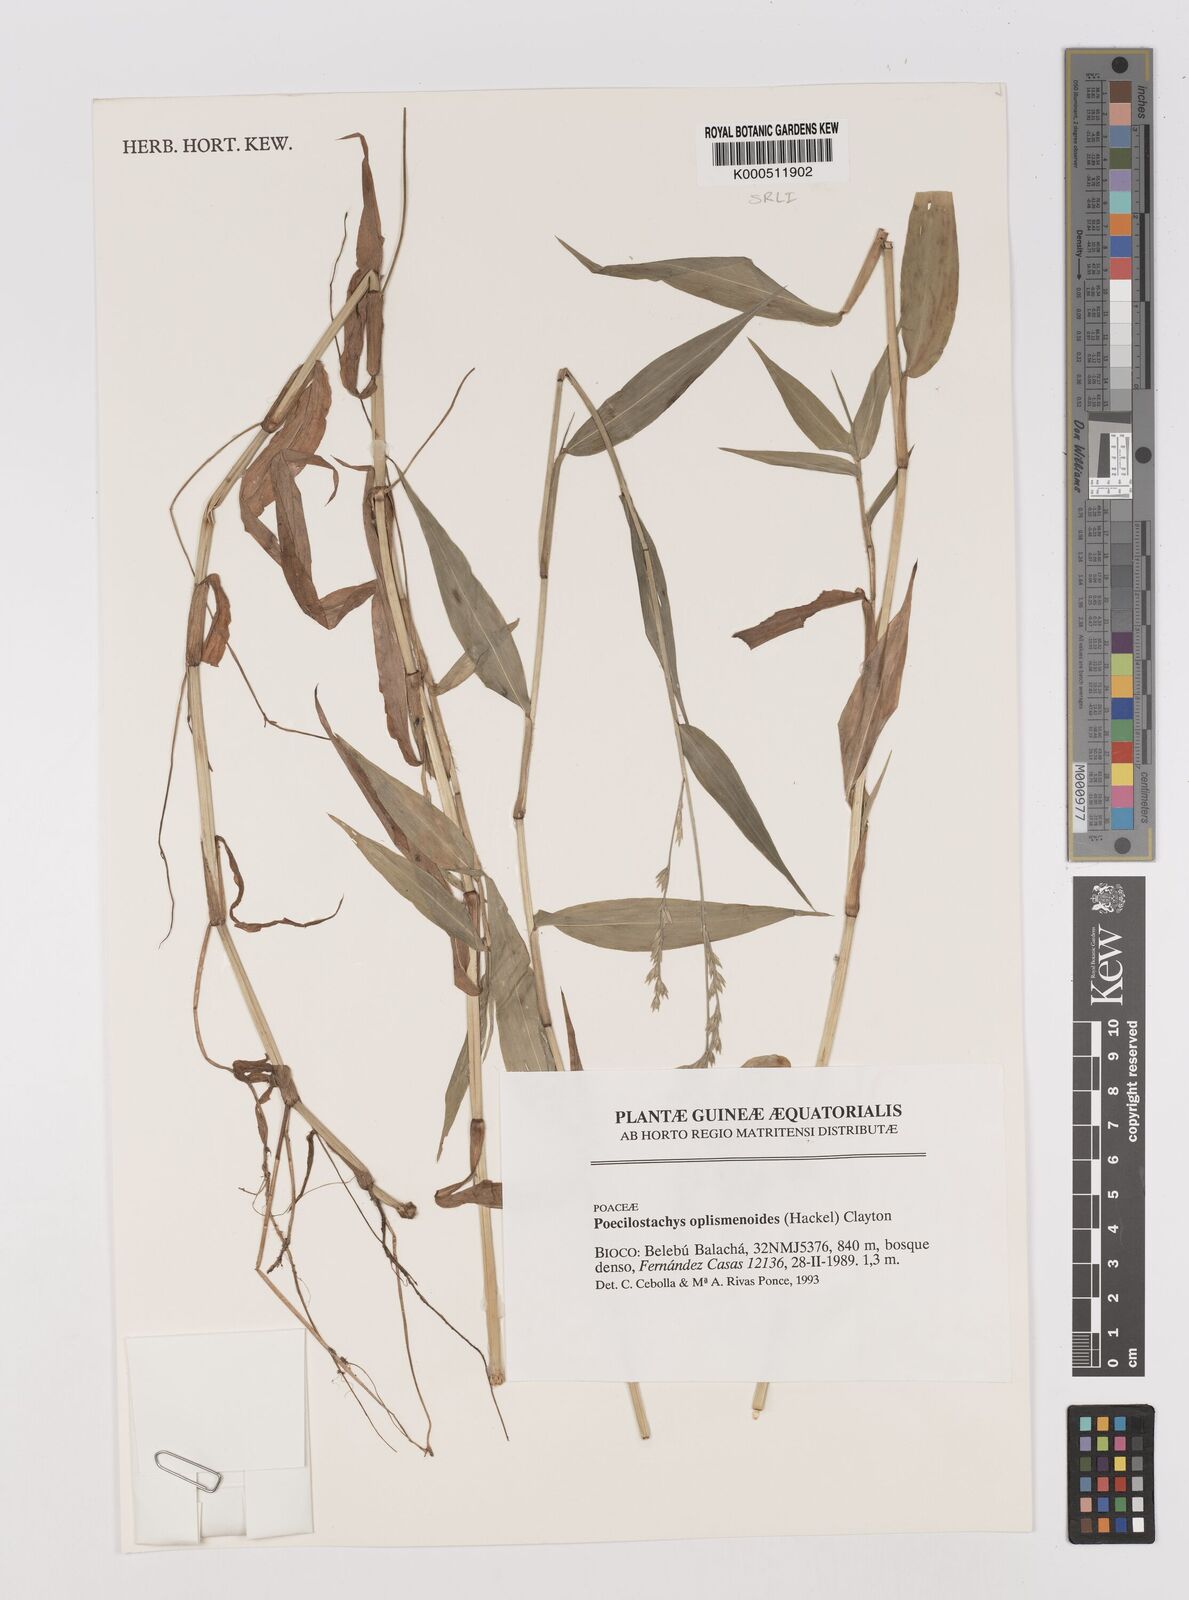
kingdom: Plantae
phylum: Tracheophyta
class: Liliopsida
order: Poales
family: Poaceae
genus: Poecilostachys
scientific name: Poecilostachys oplismenoides
